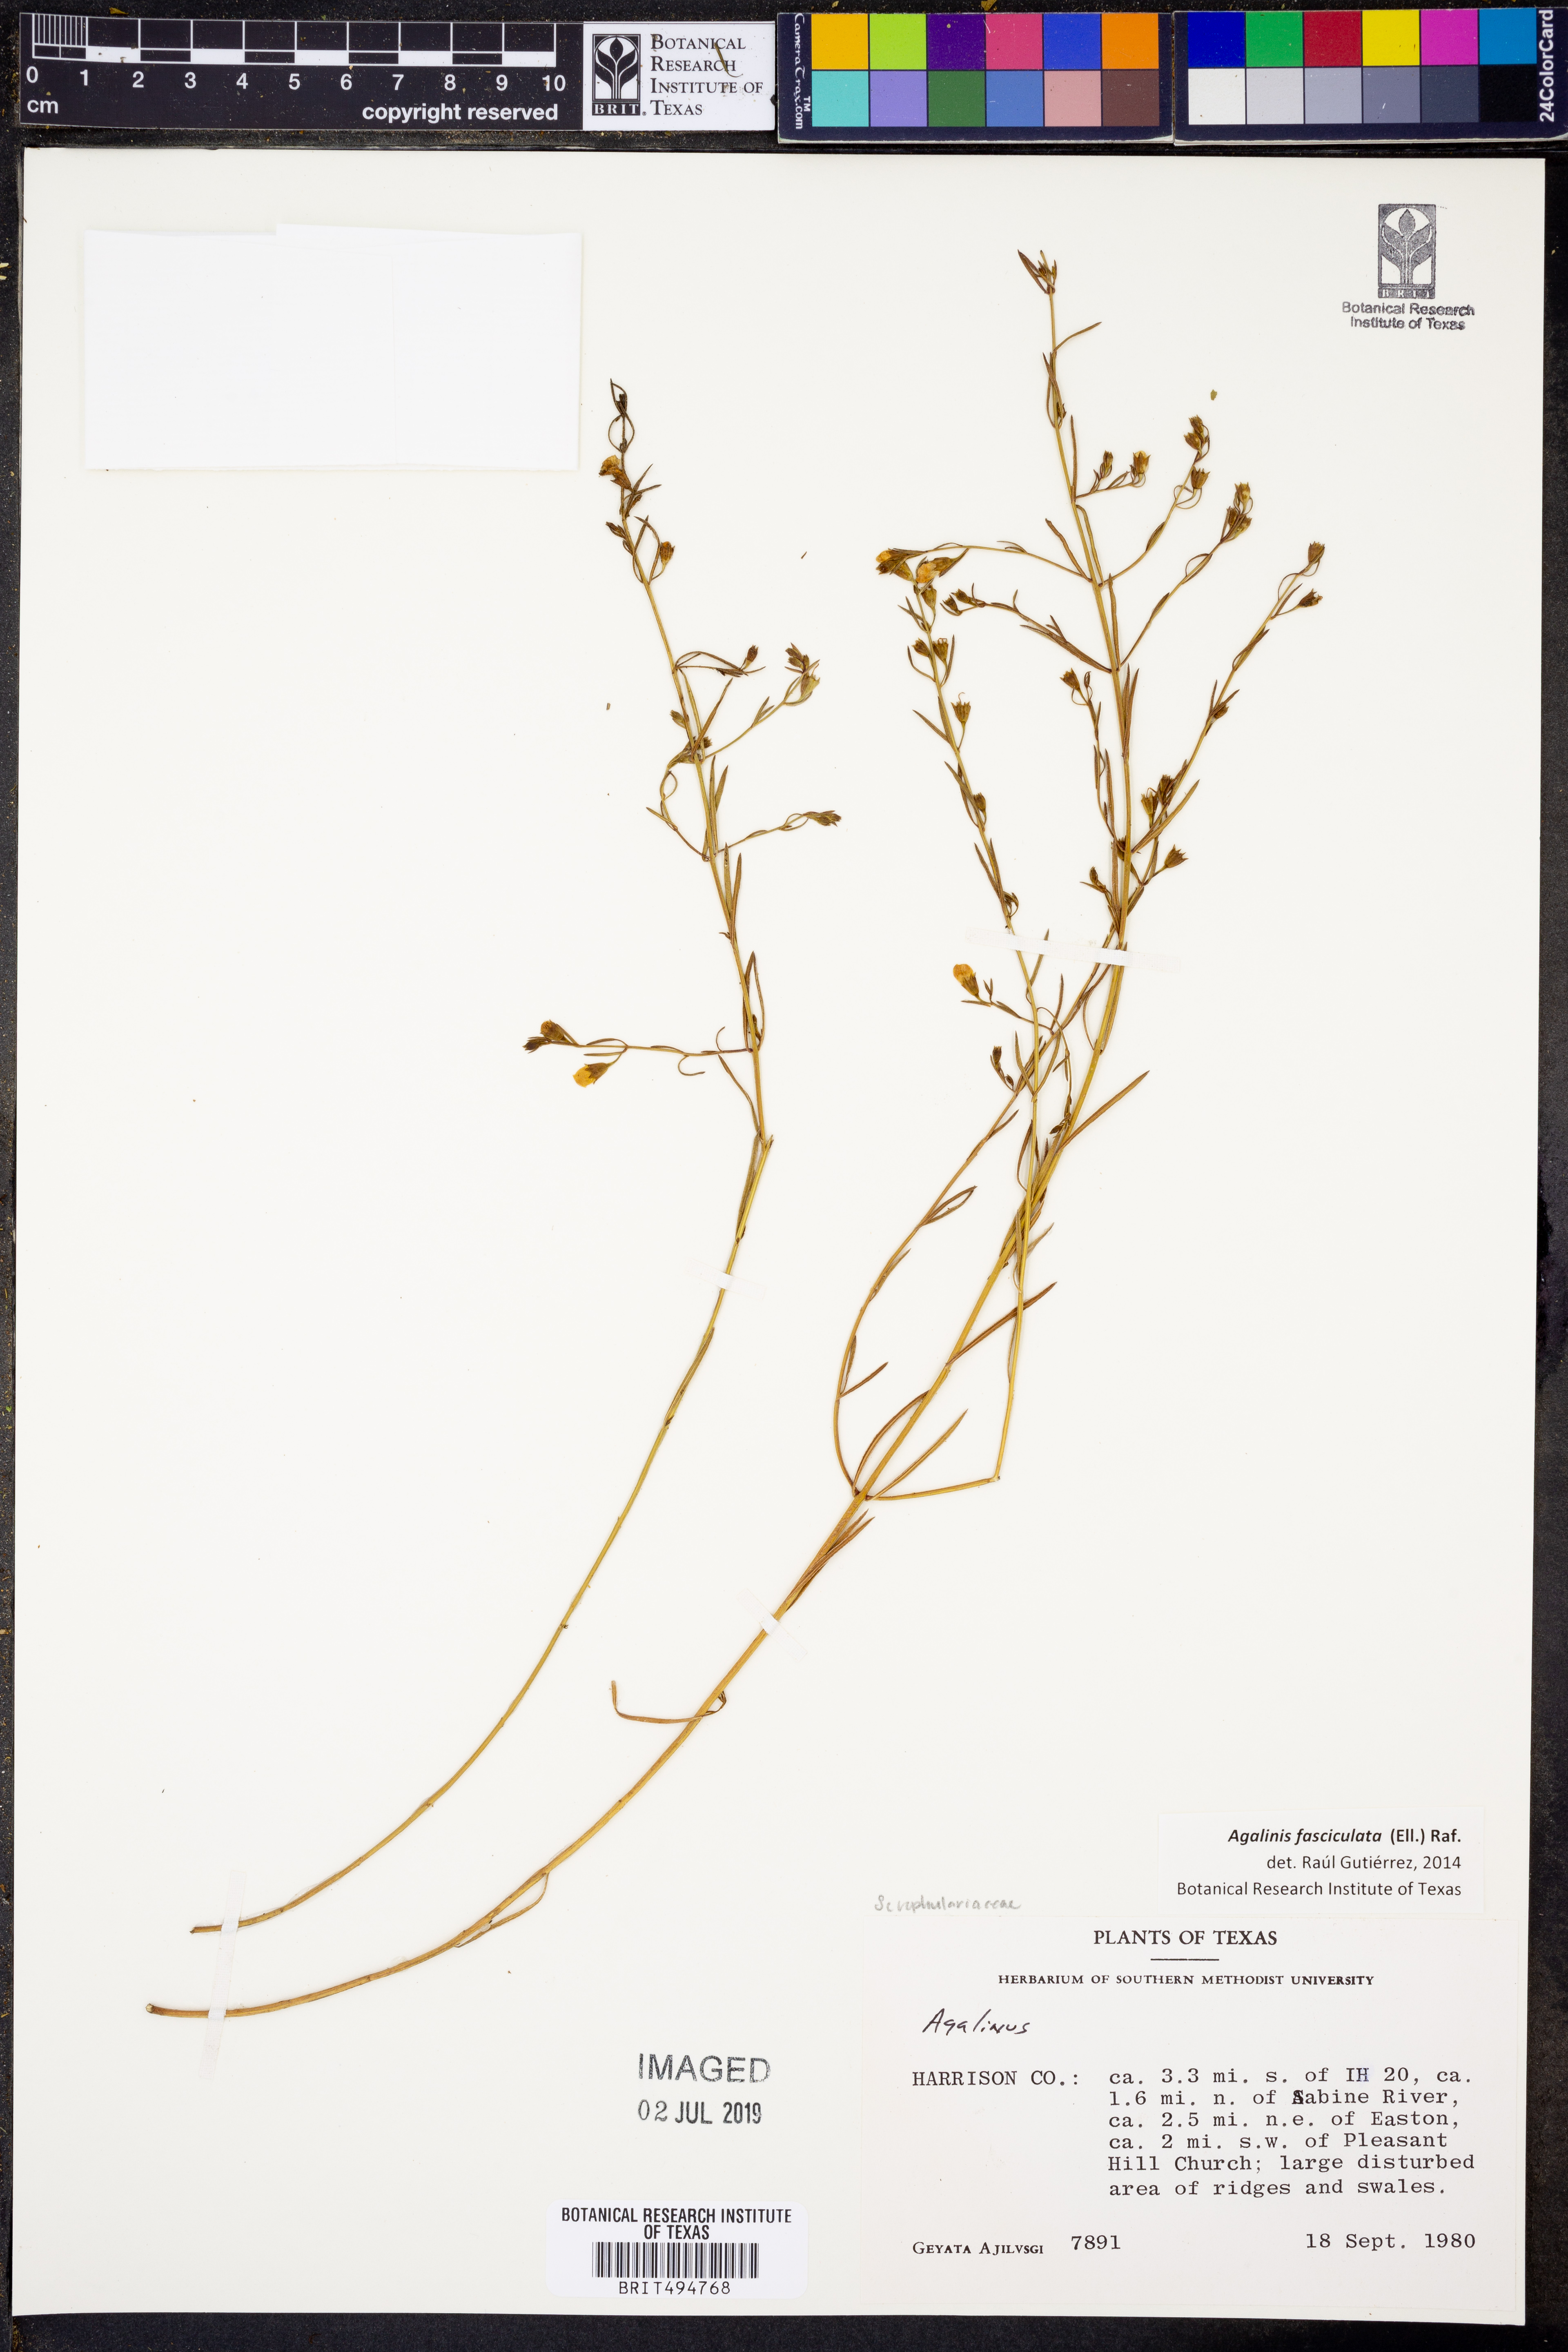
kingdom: Plantae
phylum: Tracheophyta
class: Magnoliopsida
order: Lamiales
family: Orobanchaceae
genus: Agalinis
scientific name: Agalinis fasciculata
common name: Beach false foxglove
